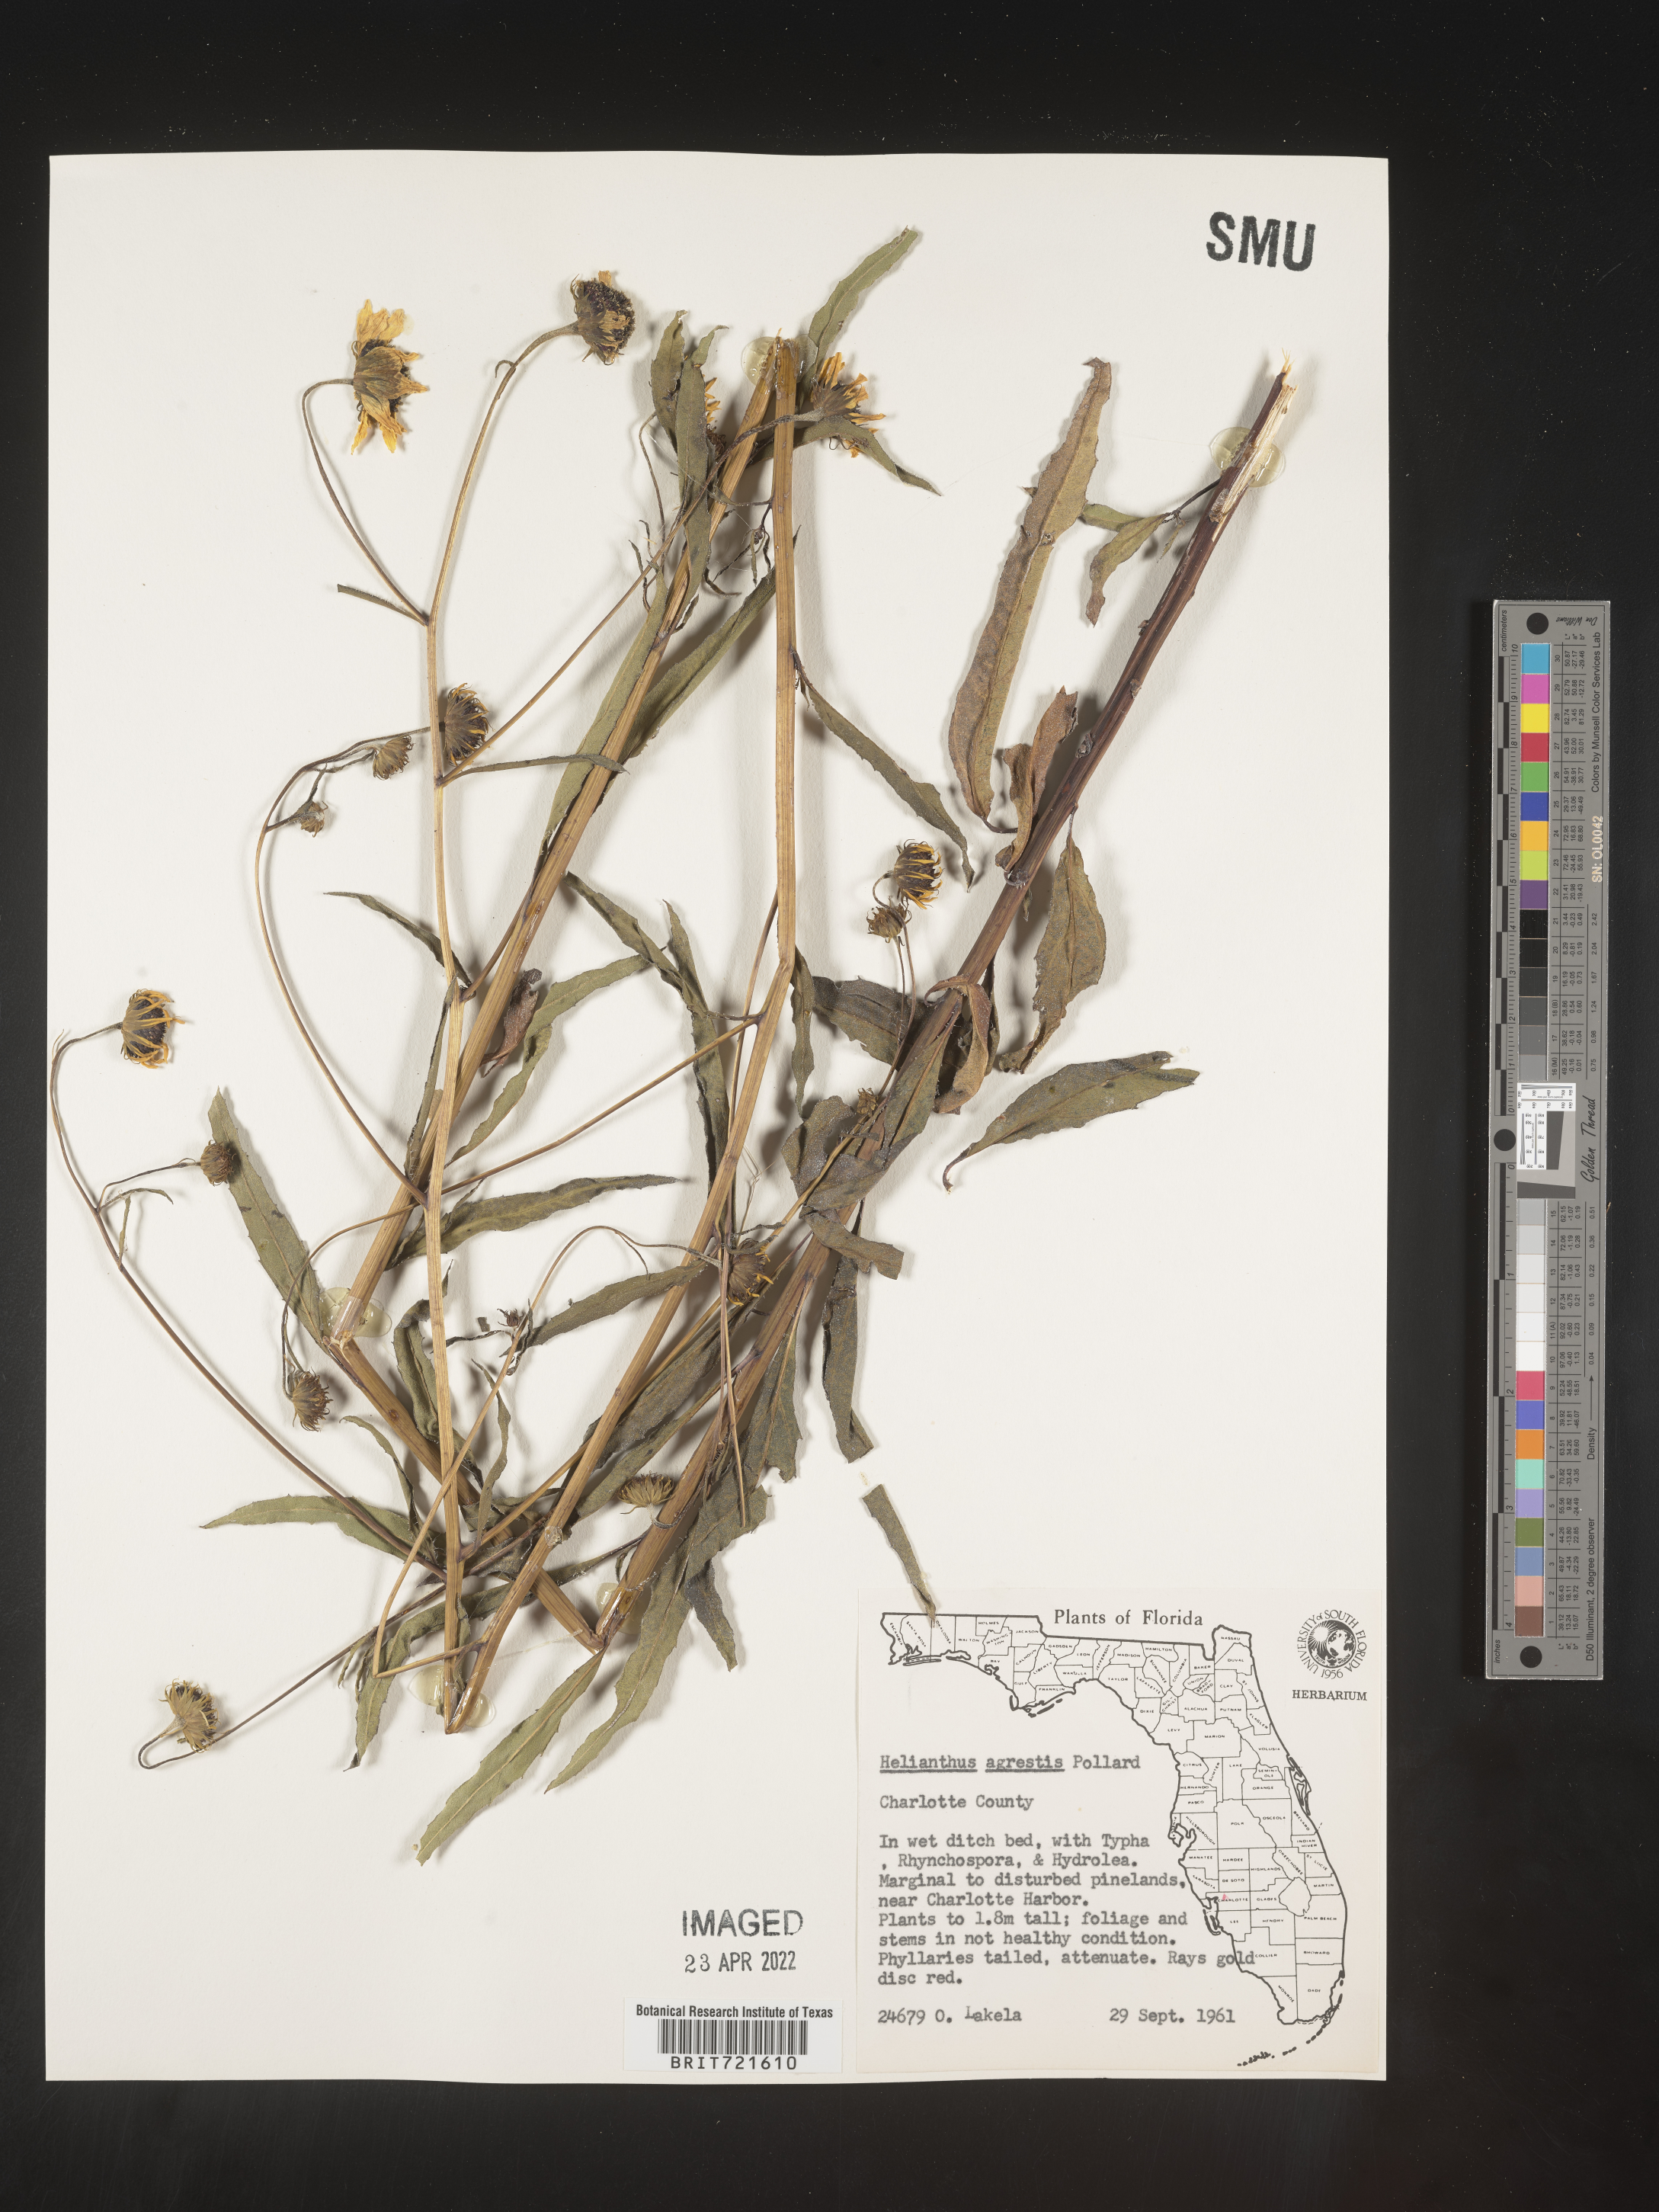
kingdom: Plantae
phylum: Tracheophyta
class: Magnoliopsida
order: Asterales
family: Asteraceae
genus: Helianthus
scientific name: Helianthus
